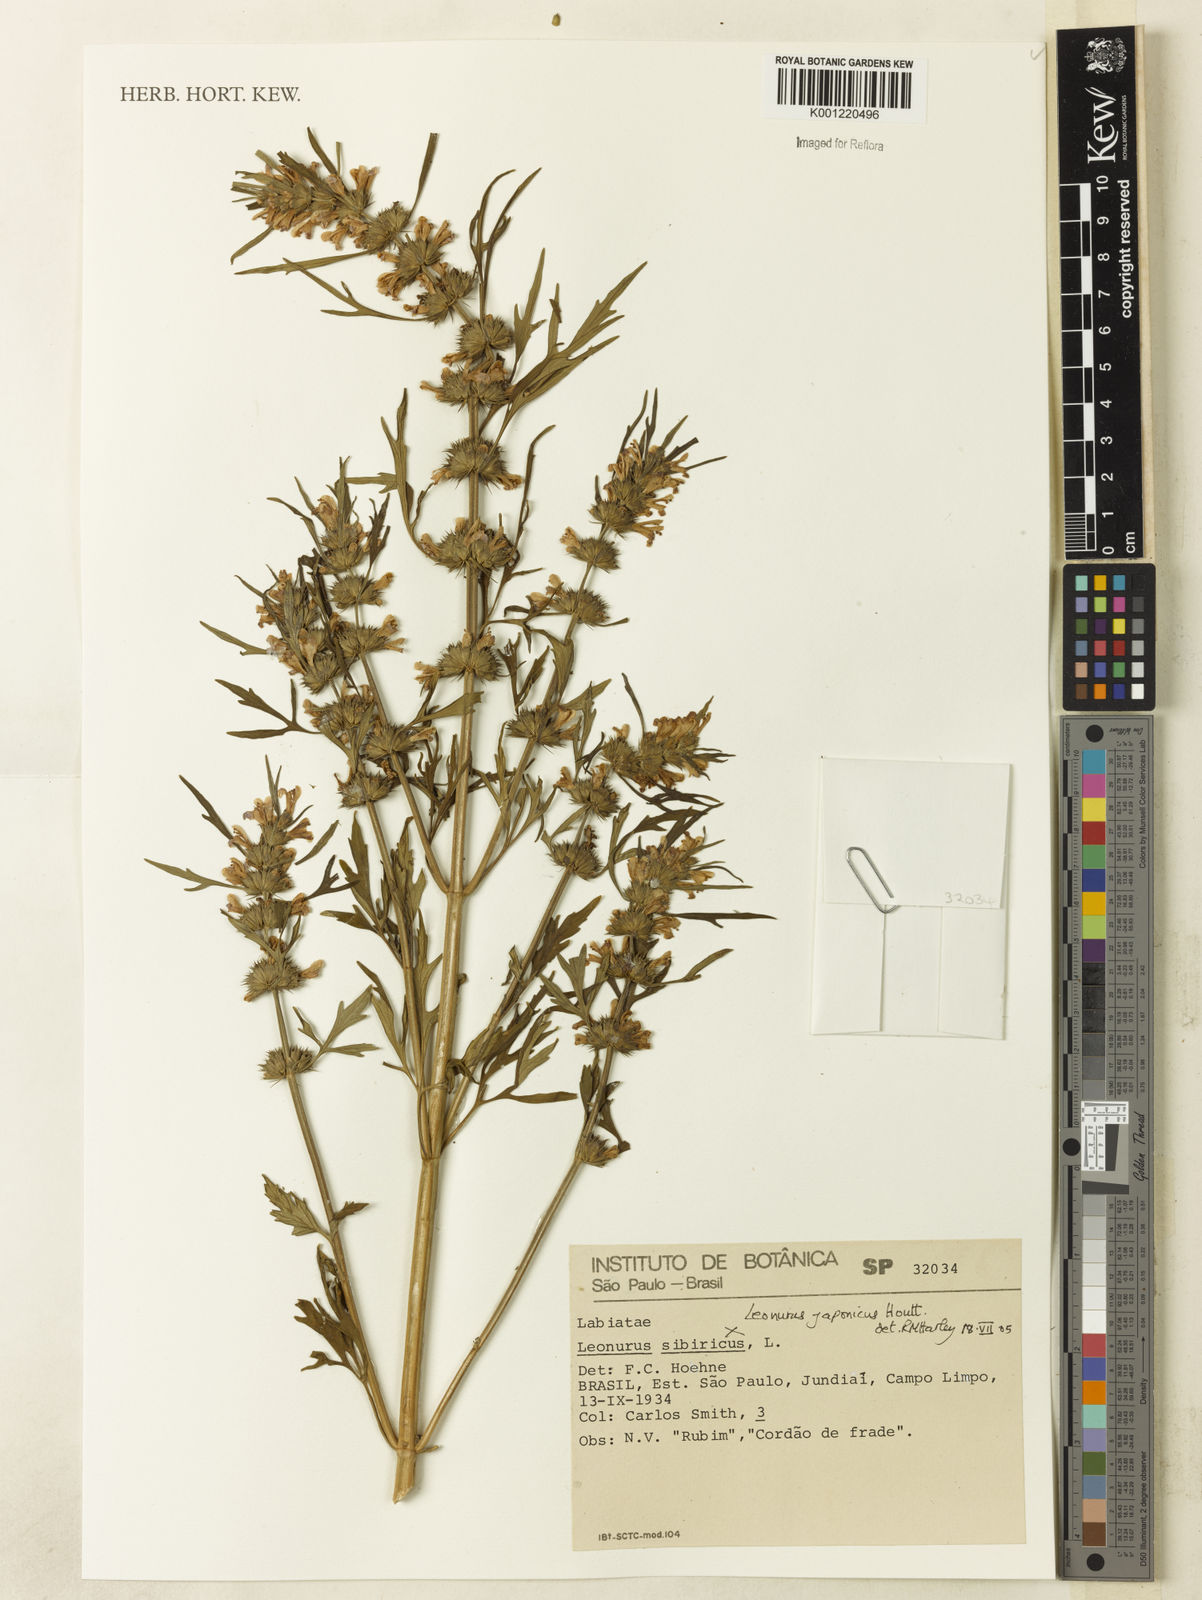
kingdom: Plantae
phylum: Tracheophyta
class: Magnoliopsida
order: Lamiales
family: Lamiaceae
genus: Leonurus
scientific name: Leonurus japonicus
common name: Honeyweed
